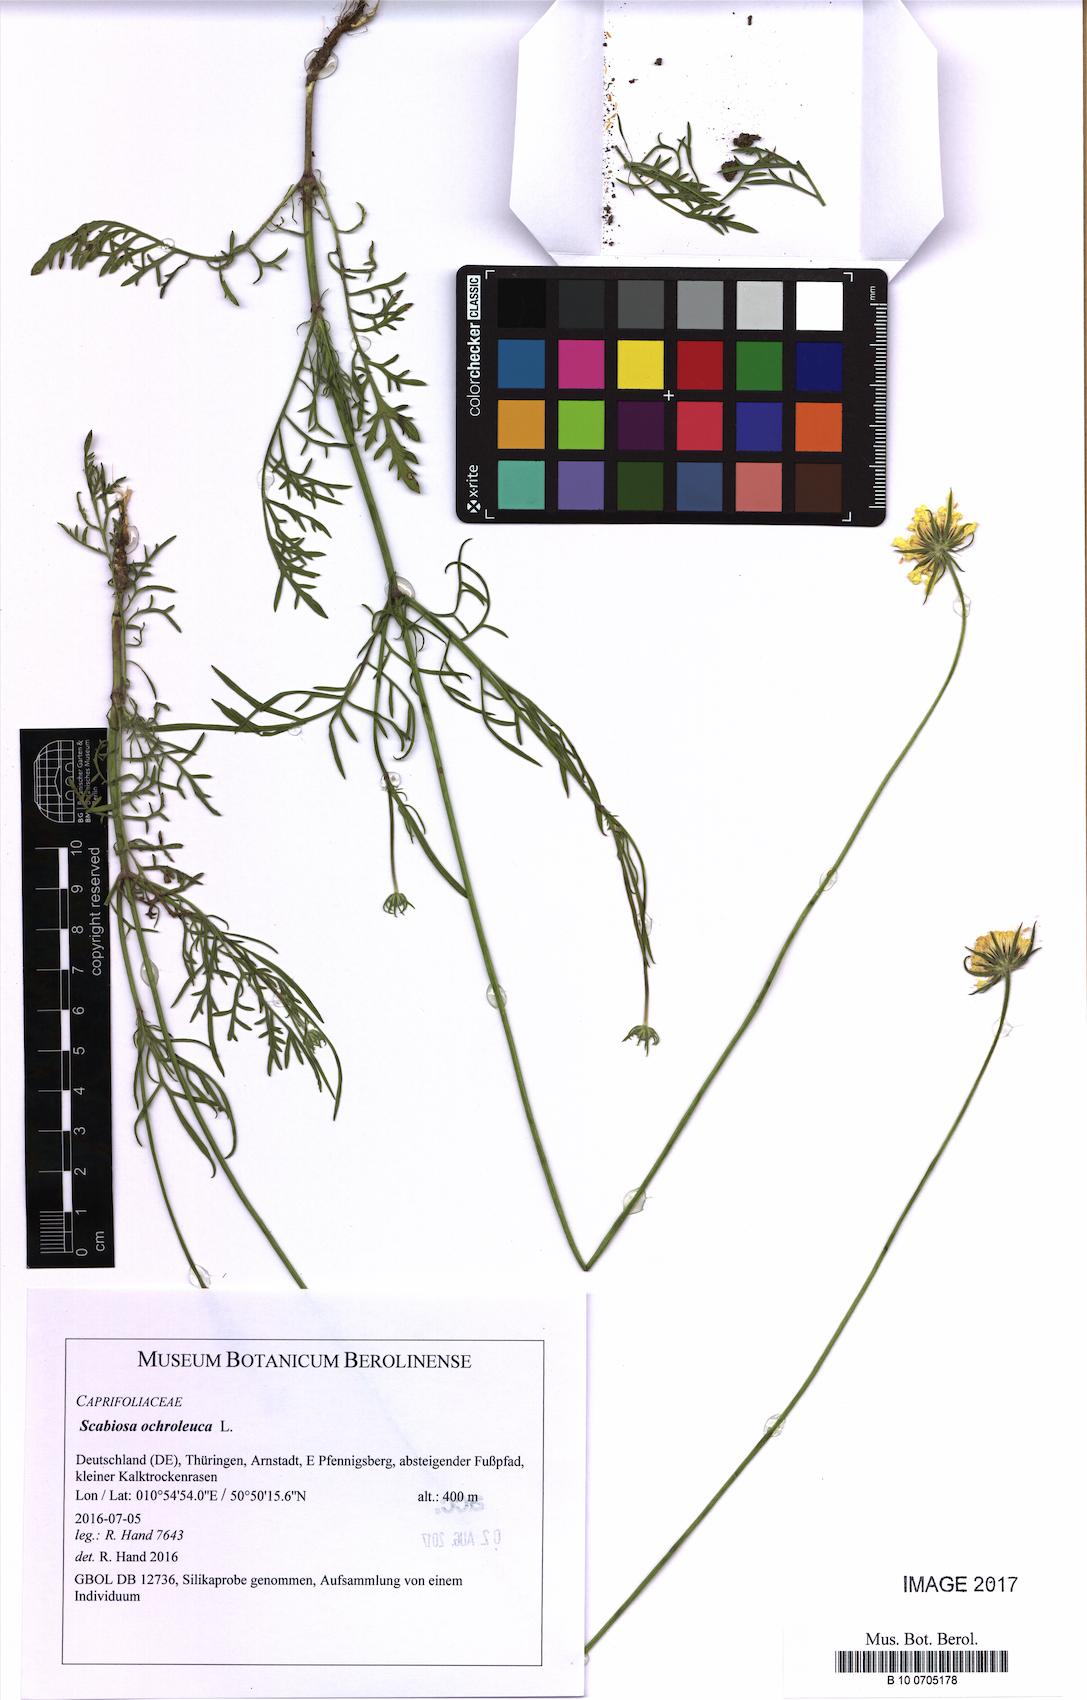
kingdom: Plantae
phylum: Tracheophyta
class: Magnoliopsida
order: Dipsacales
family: Caprifoliaceae
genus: Scabiosa
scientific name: Scabiosa ochroleuca
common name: Cream pincushions
